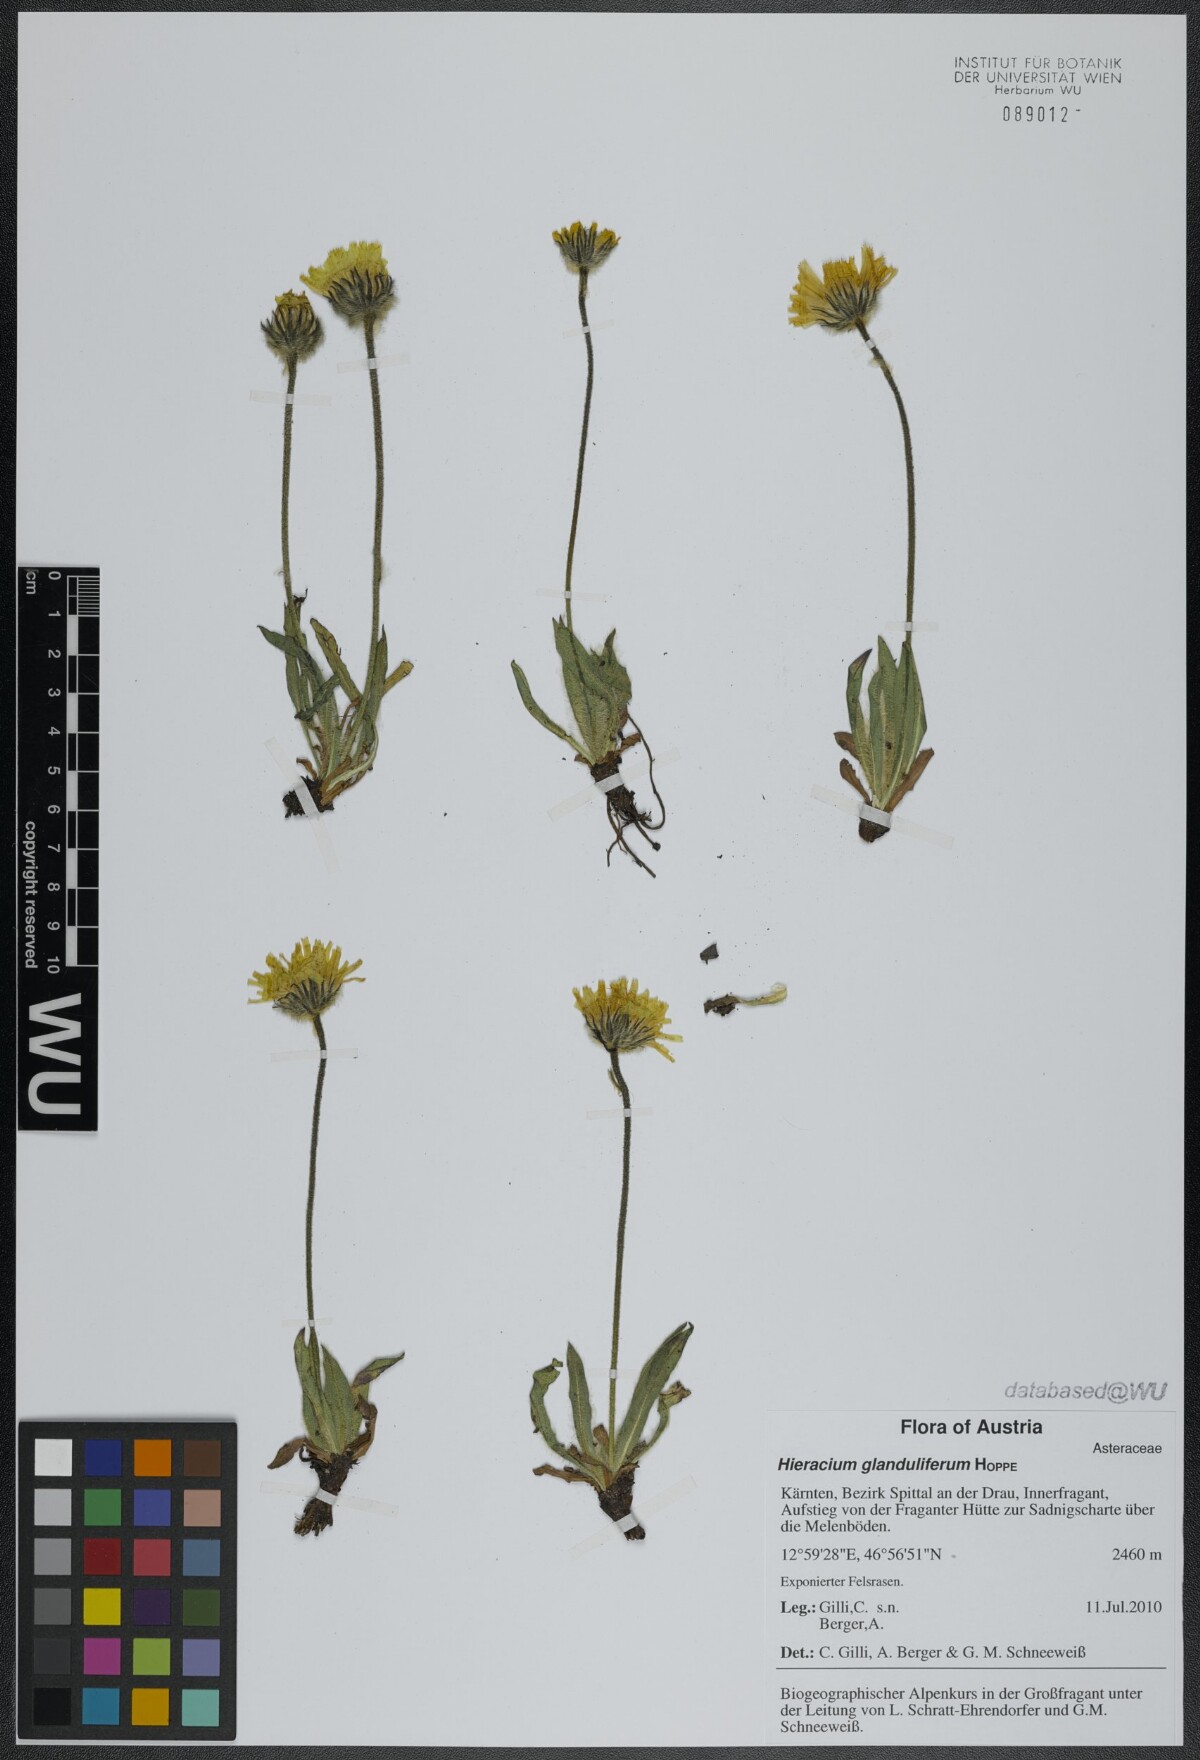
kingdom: Plantae
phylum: Tracheophyta
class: Magnoliopsida
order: Asterales
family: Asteraceae
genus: Hieracium
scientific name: Hieracium piliferum
